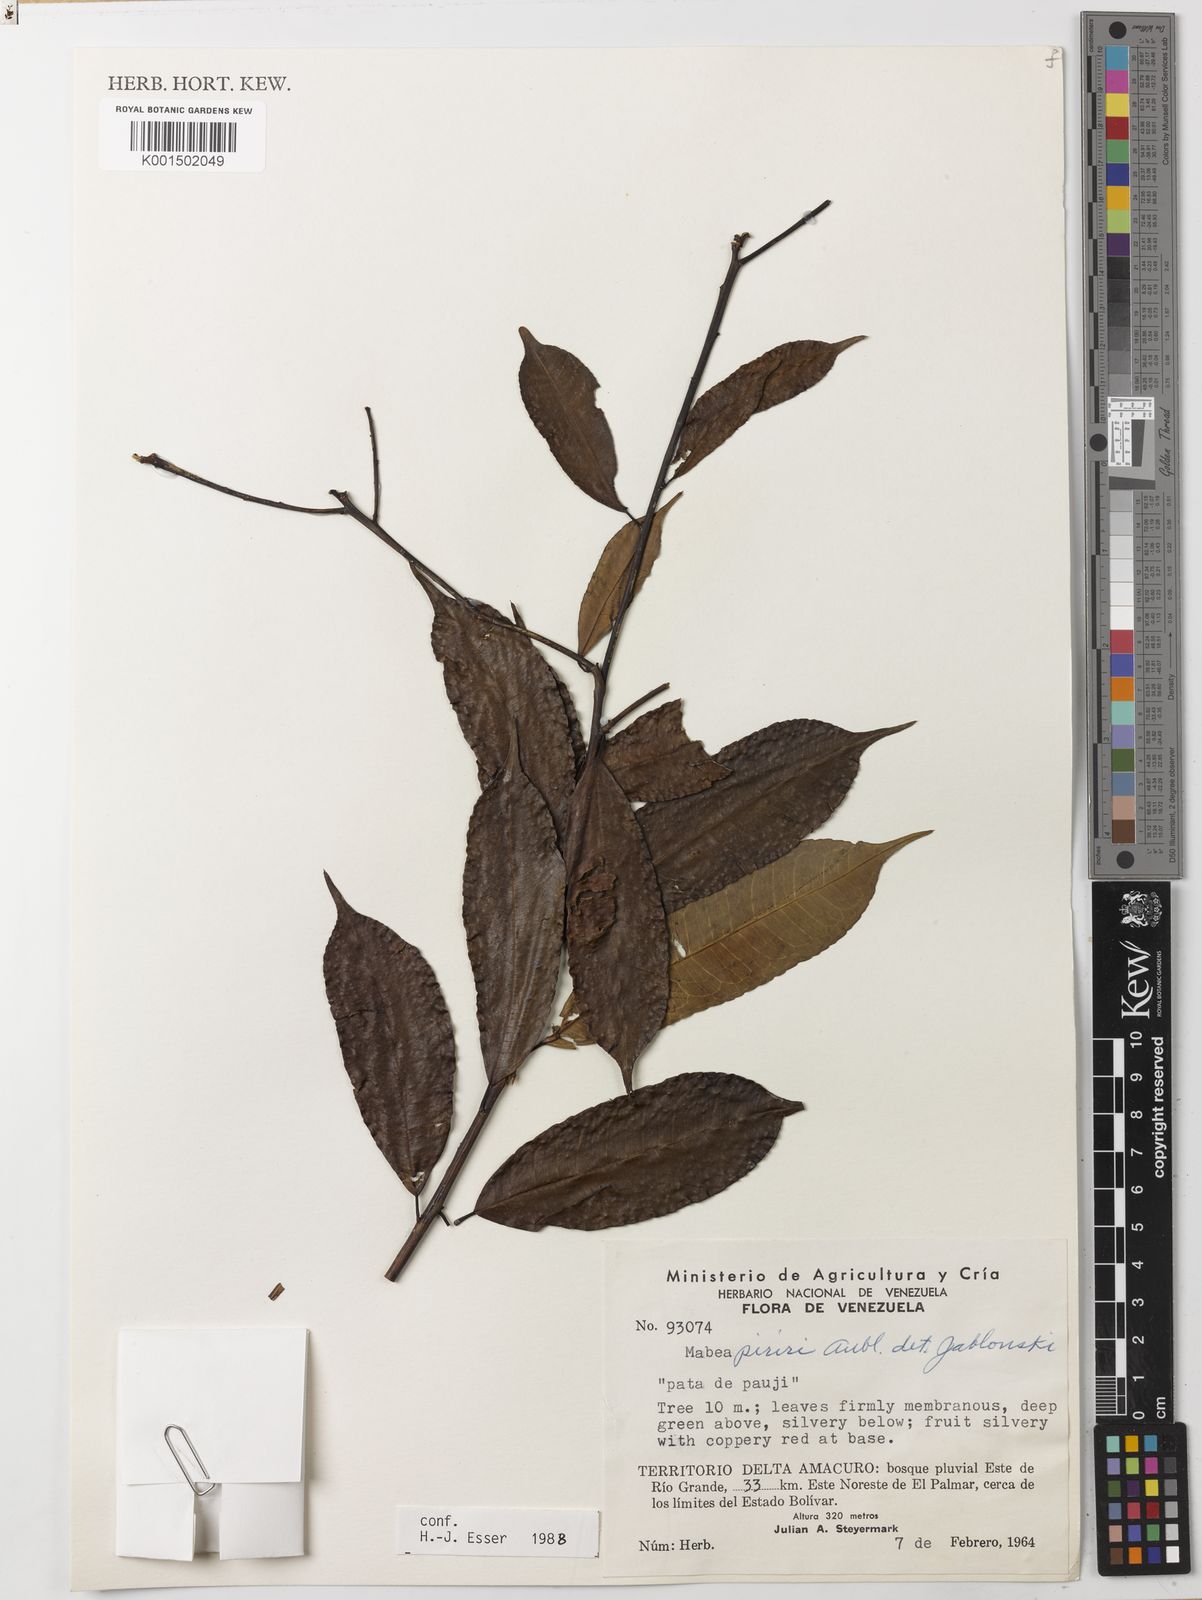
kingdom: Plantae
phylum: Tracheophyta
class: Magnoliopsida
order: Malpighiales
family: Euphorbiaceae
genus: Mabea
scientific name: Mabea piriri
